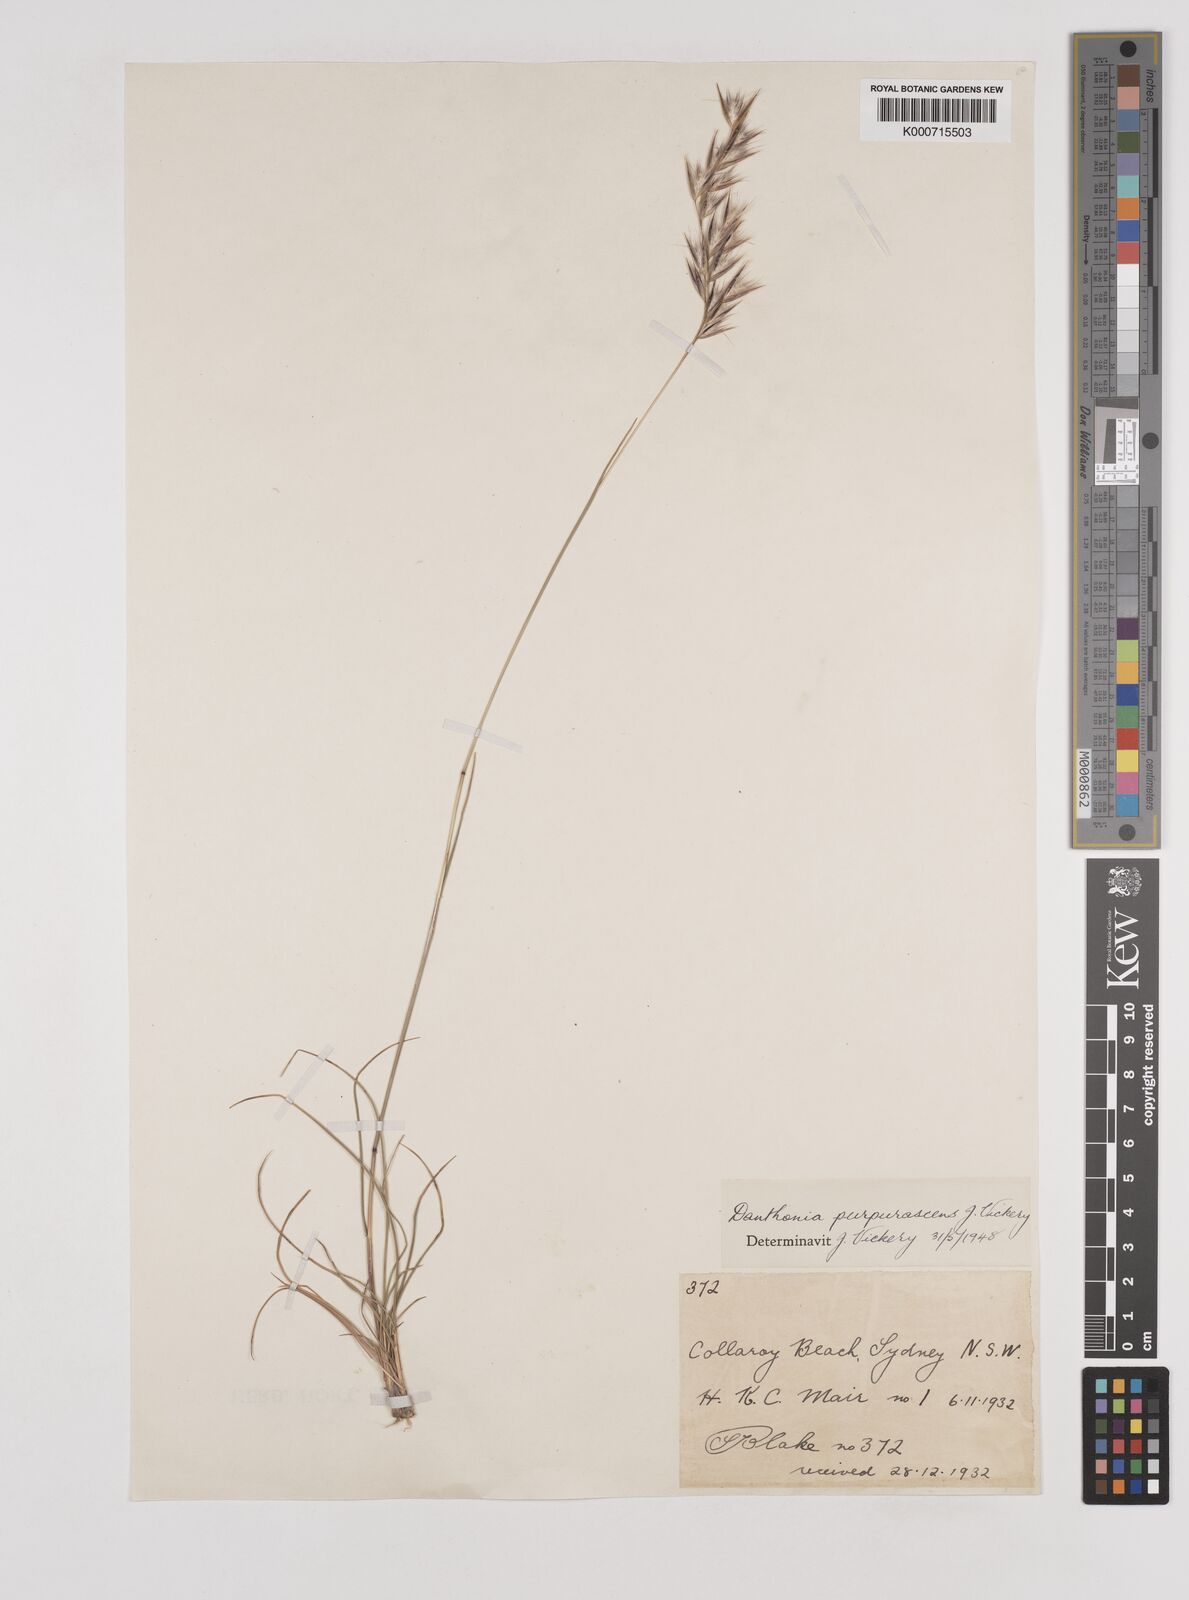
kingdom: Plantae
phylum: Tracheophyta
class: Liliopsida
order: Poales
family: Poaceae
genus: Rytidosperma
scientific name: Rytidosperma tenuius
